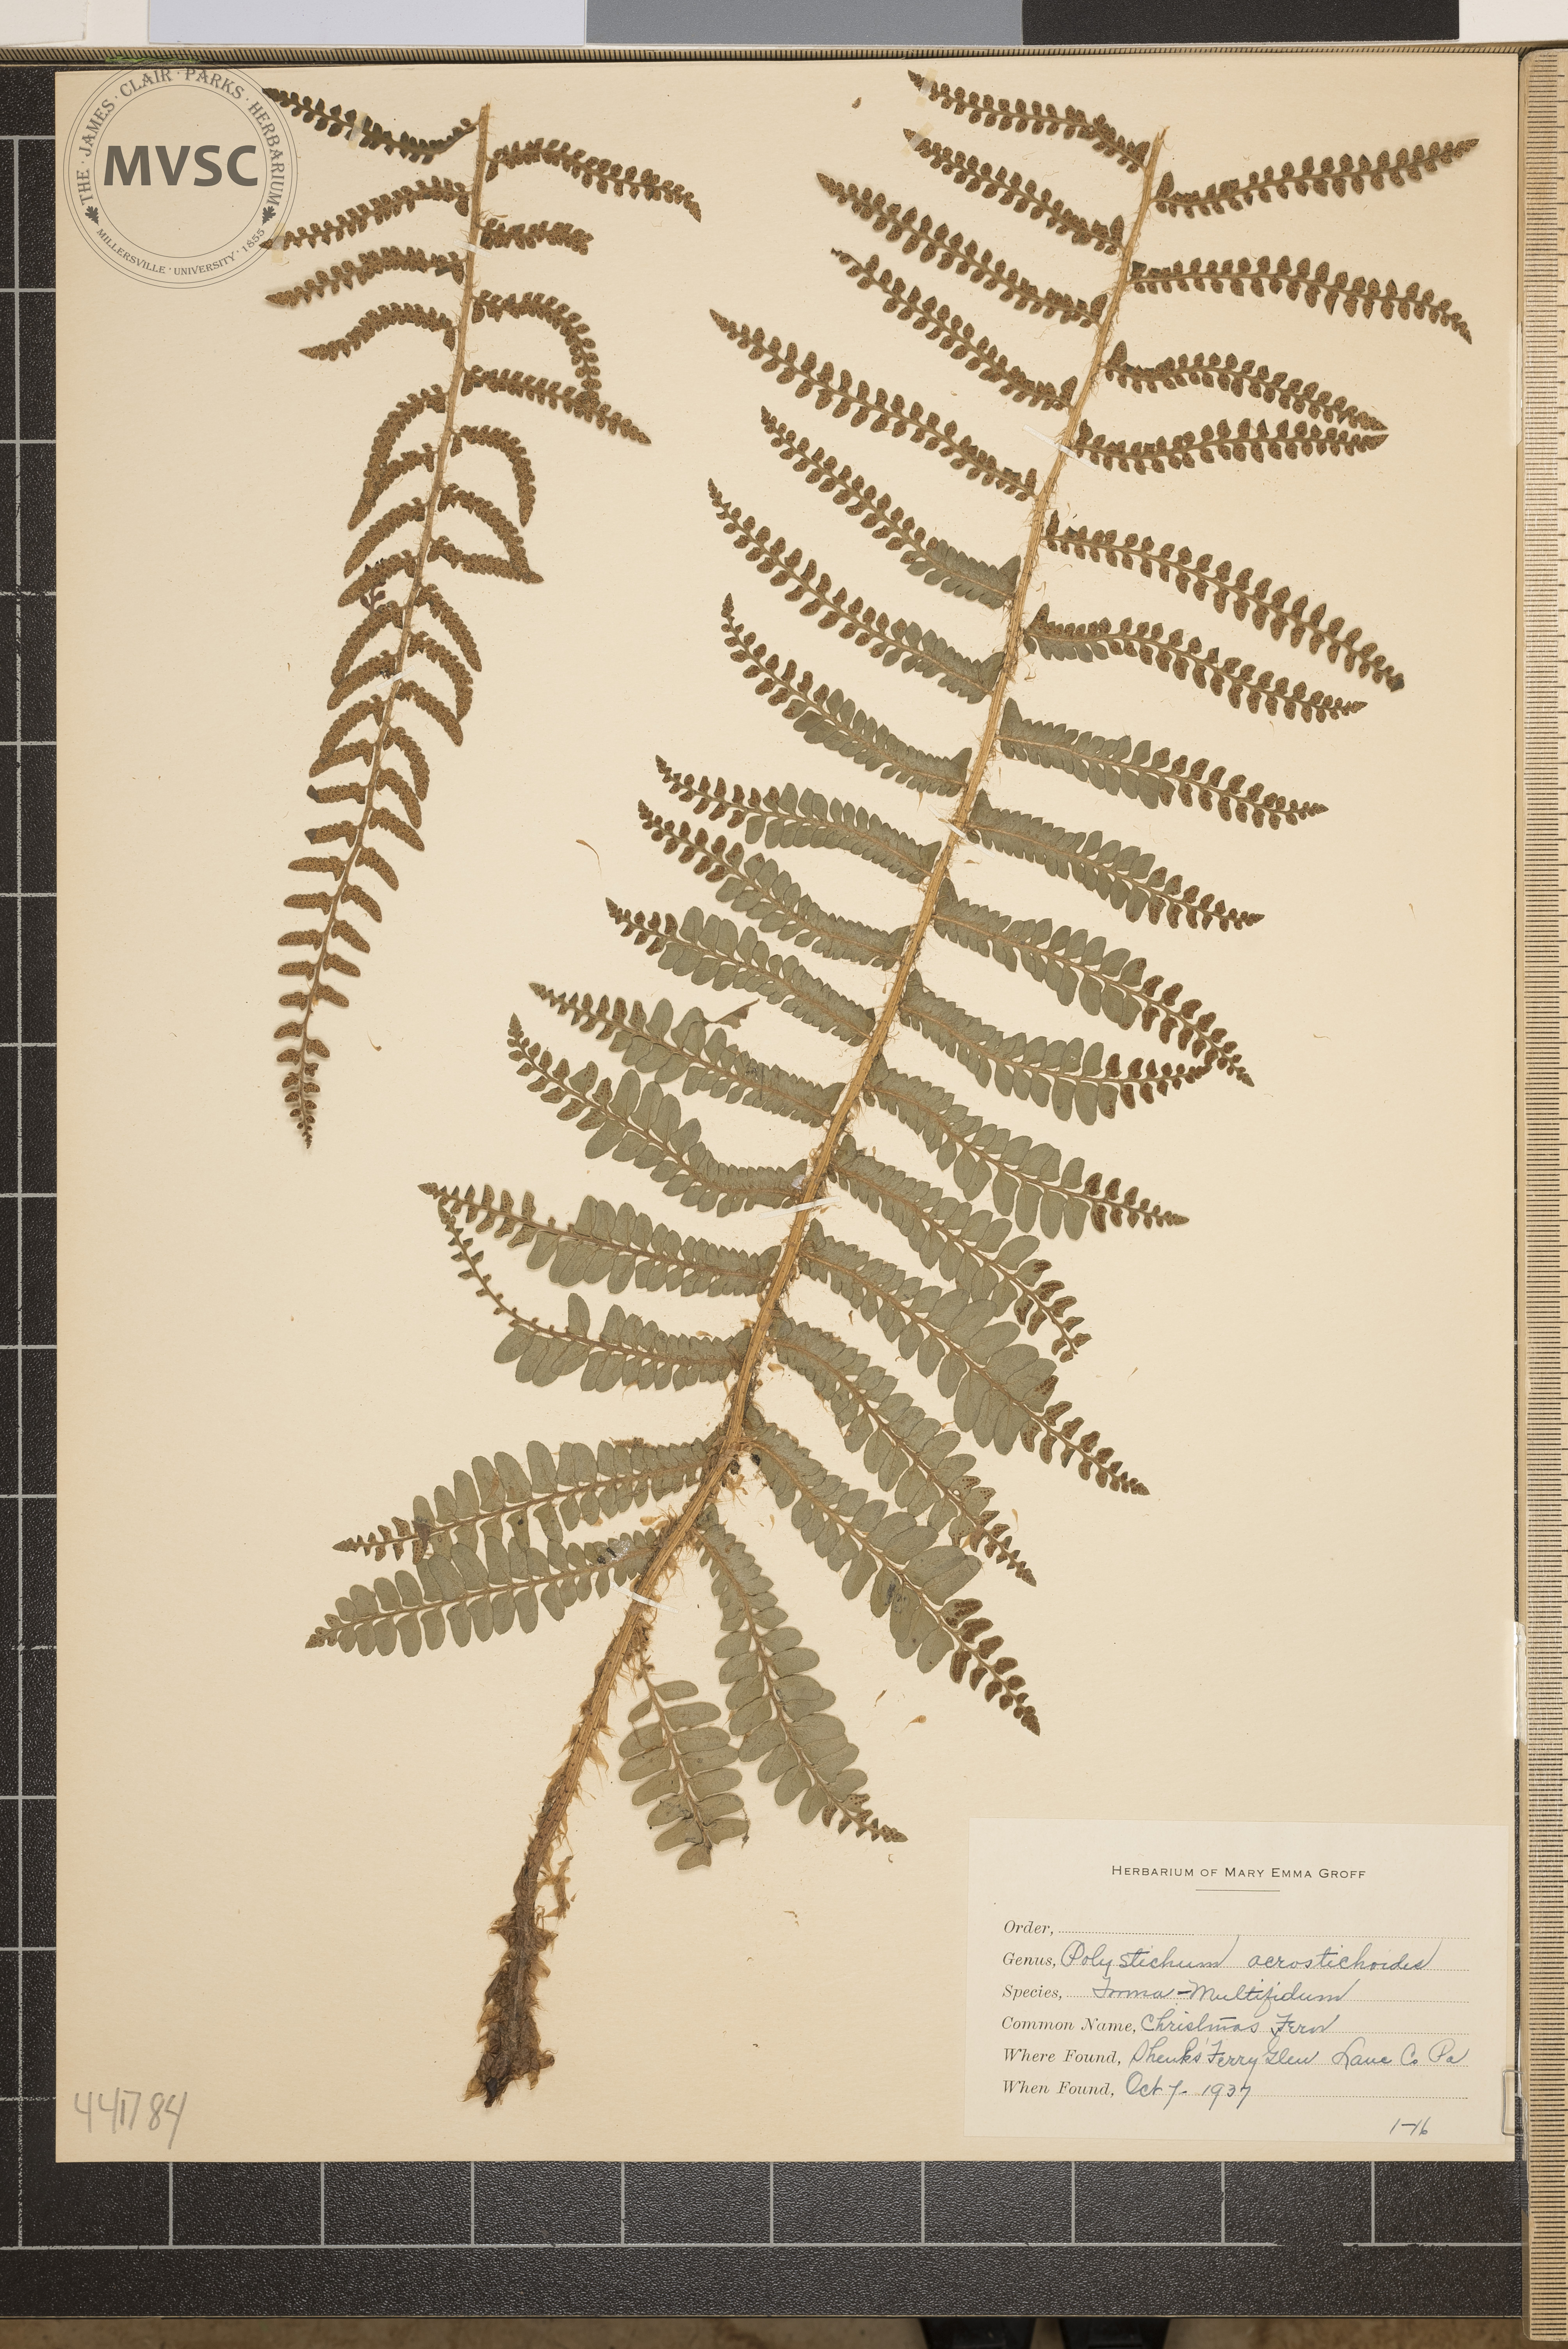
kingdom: Plantae
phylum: Tracheophyta
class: Polypodiopsida
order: Polypodiales
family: Dryopteridaceae
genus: Polystichum
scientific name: Polystichum acrostichoides
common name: Christmas fern
